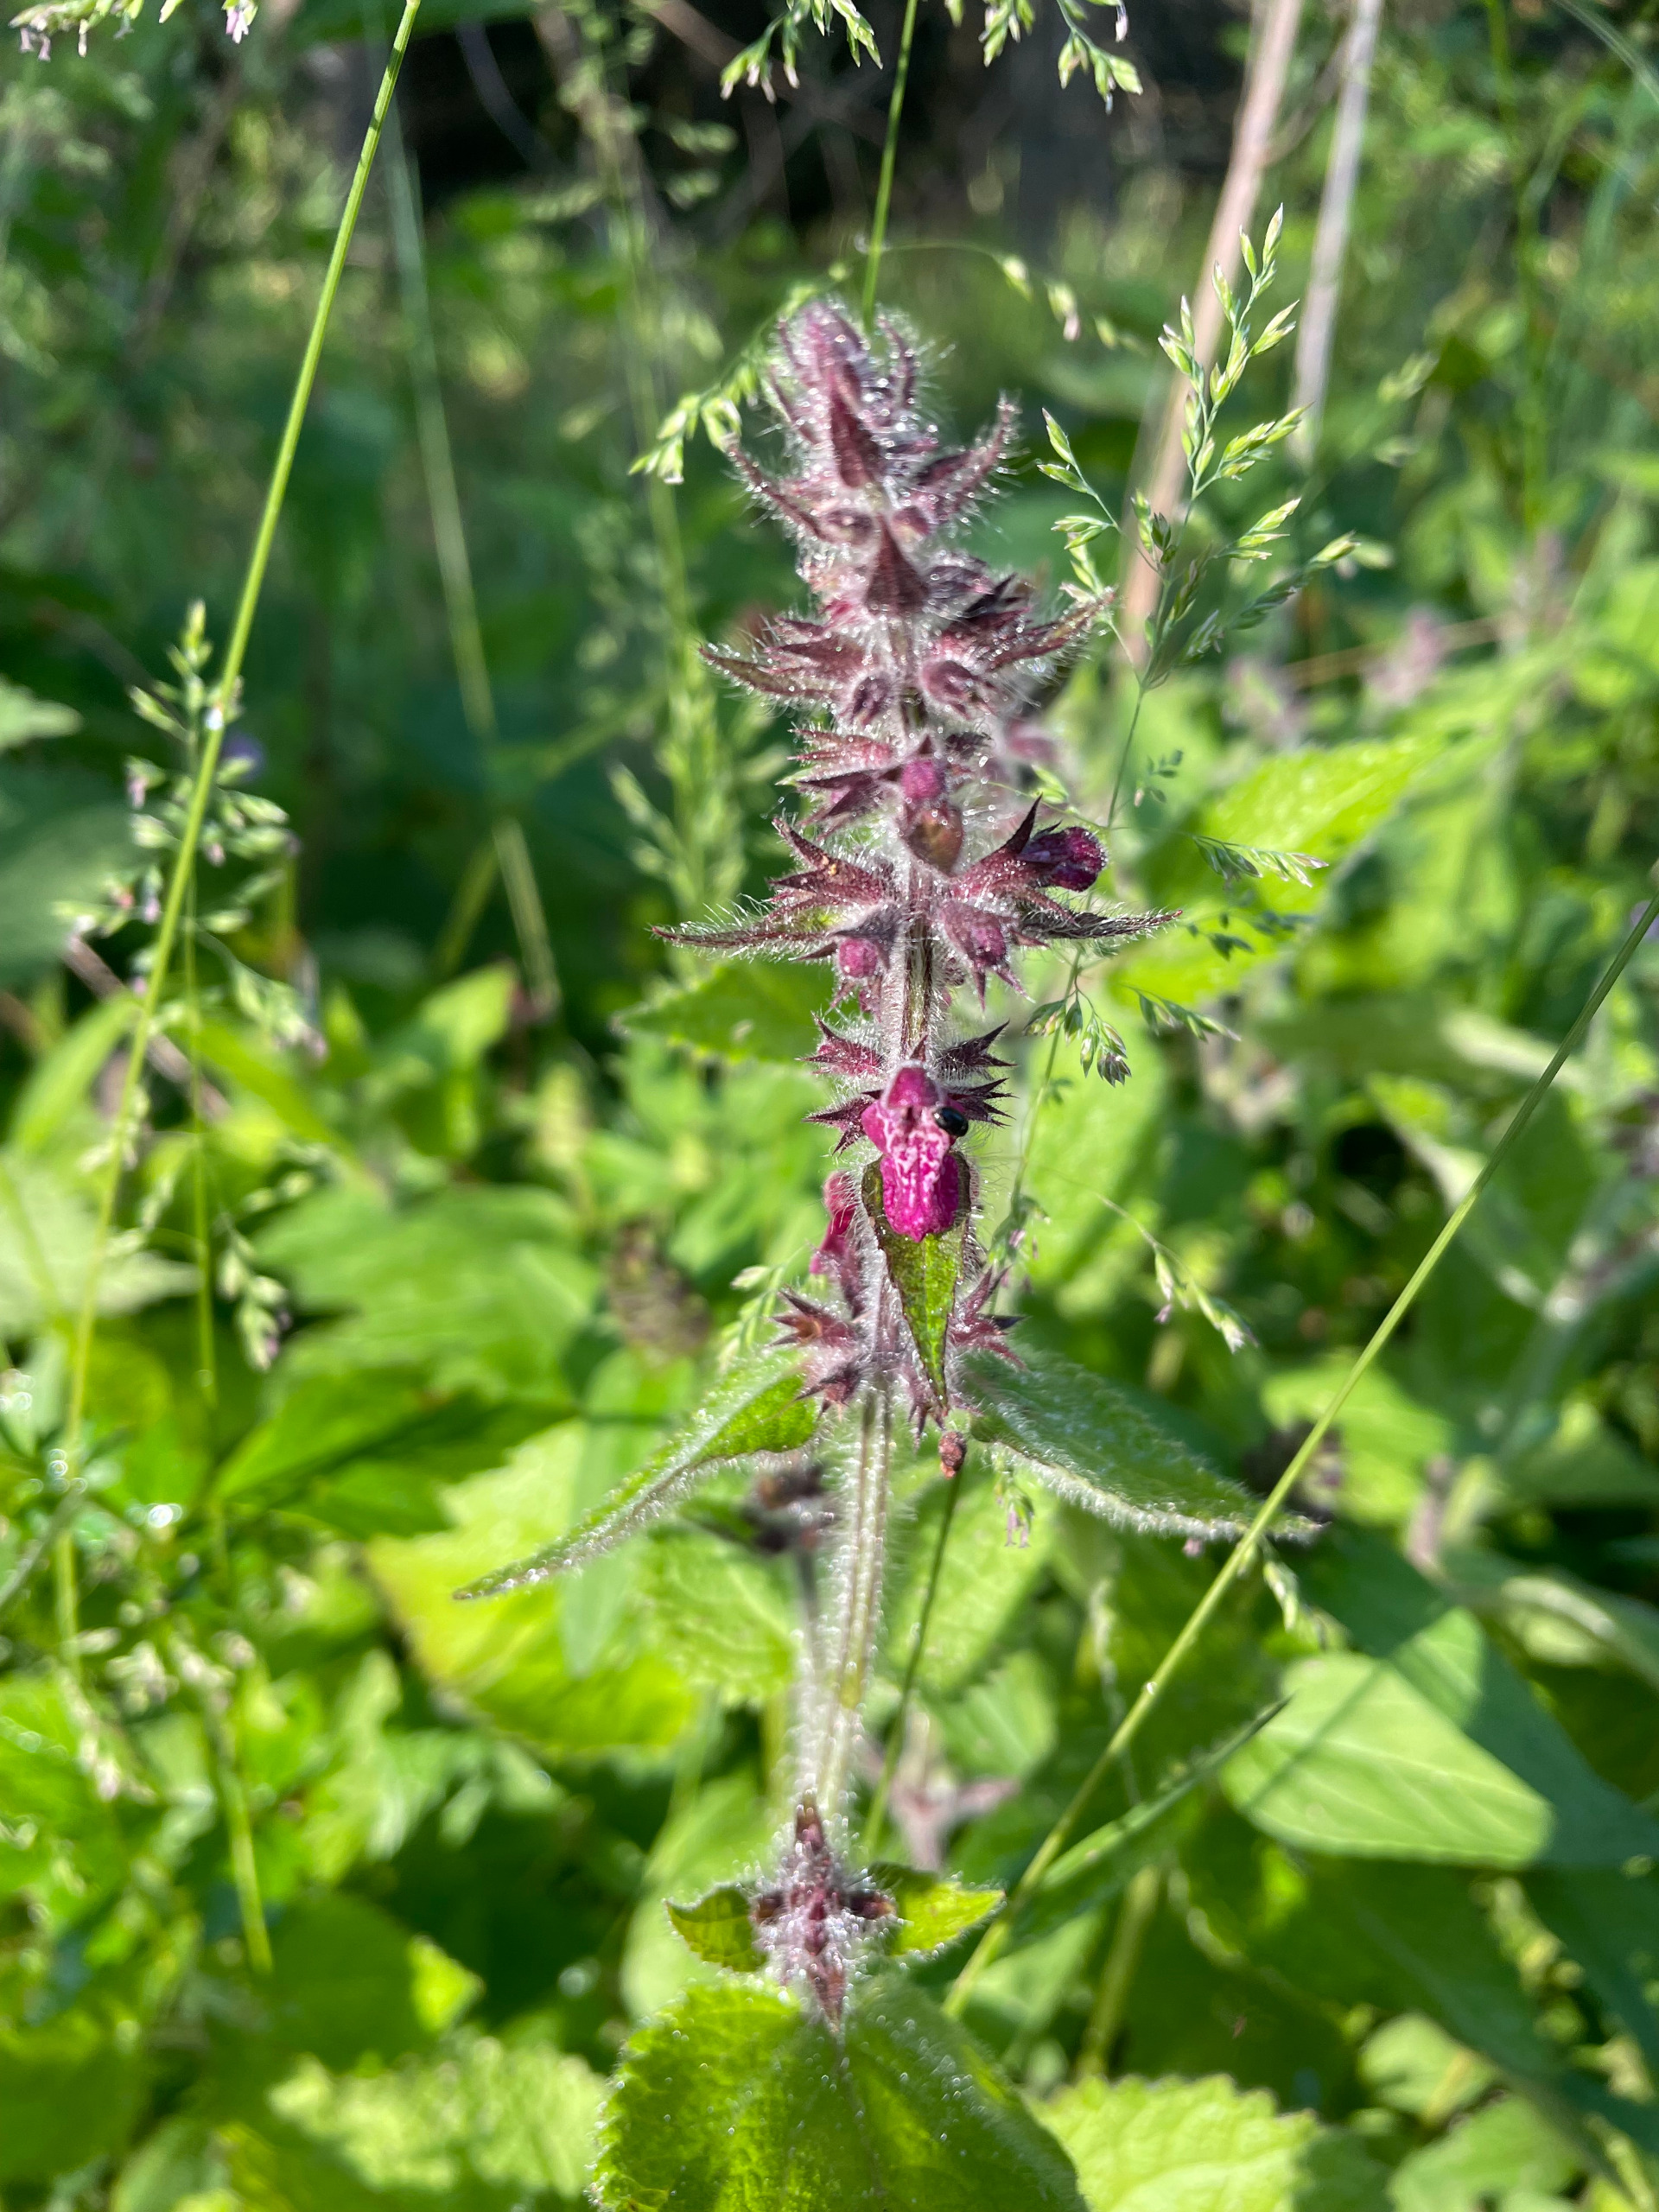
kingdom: Plantae
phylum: Tracheophyta
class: Magnoliopsida
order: Lamiales
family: Lamiaceae
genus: Stachys
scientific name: Stachys sylvatica
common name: Skov-galtetand
